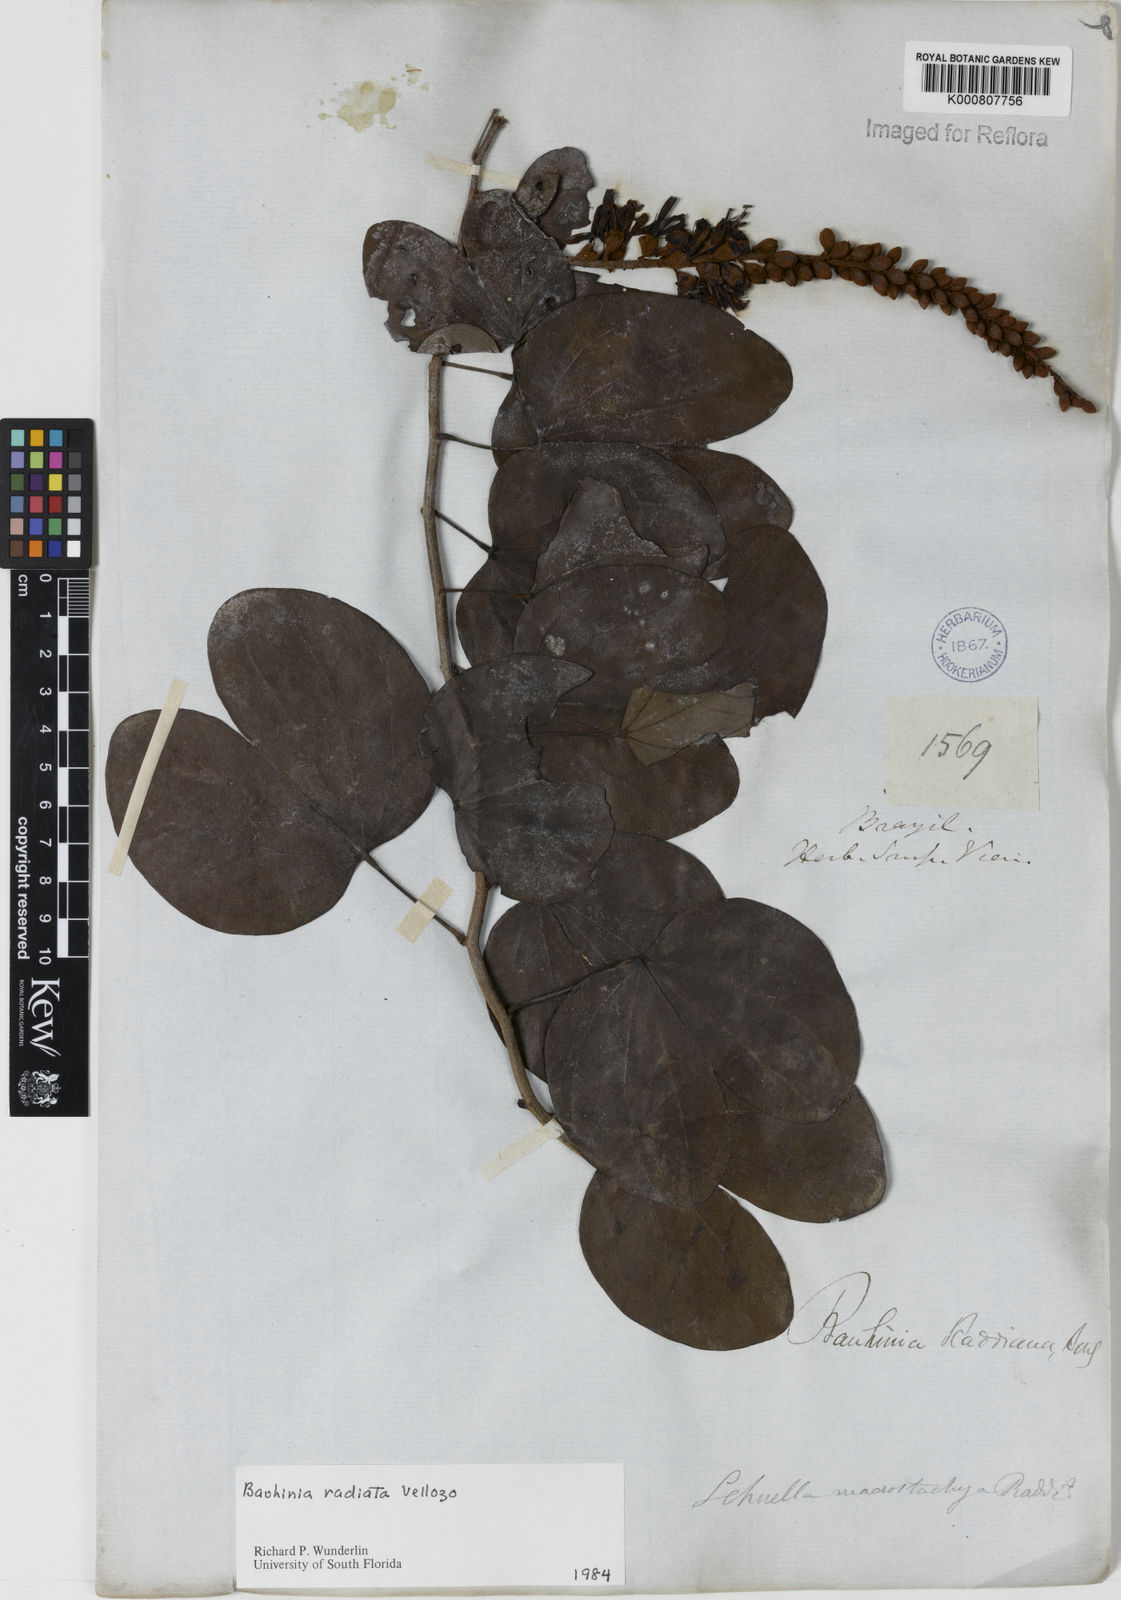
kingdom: Plantae
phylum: Tracheophyta
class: Magnoliopsida
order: Fabales
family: Fabaceae
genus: Schnella
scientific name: Schnella macrostachya
